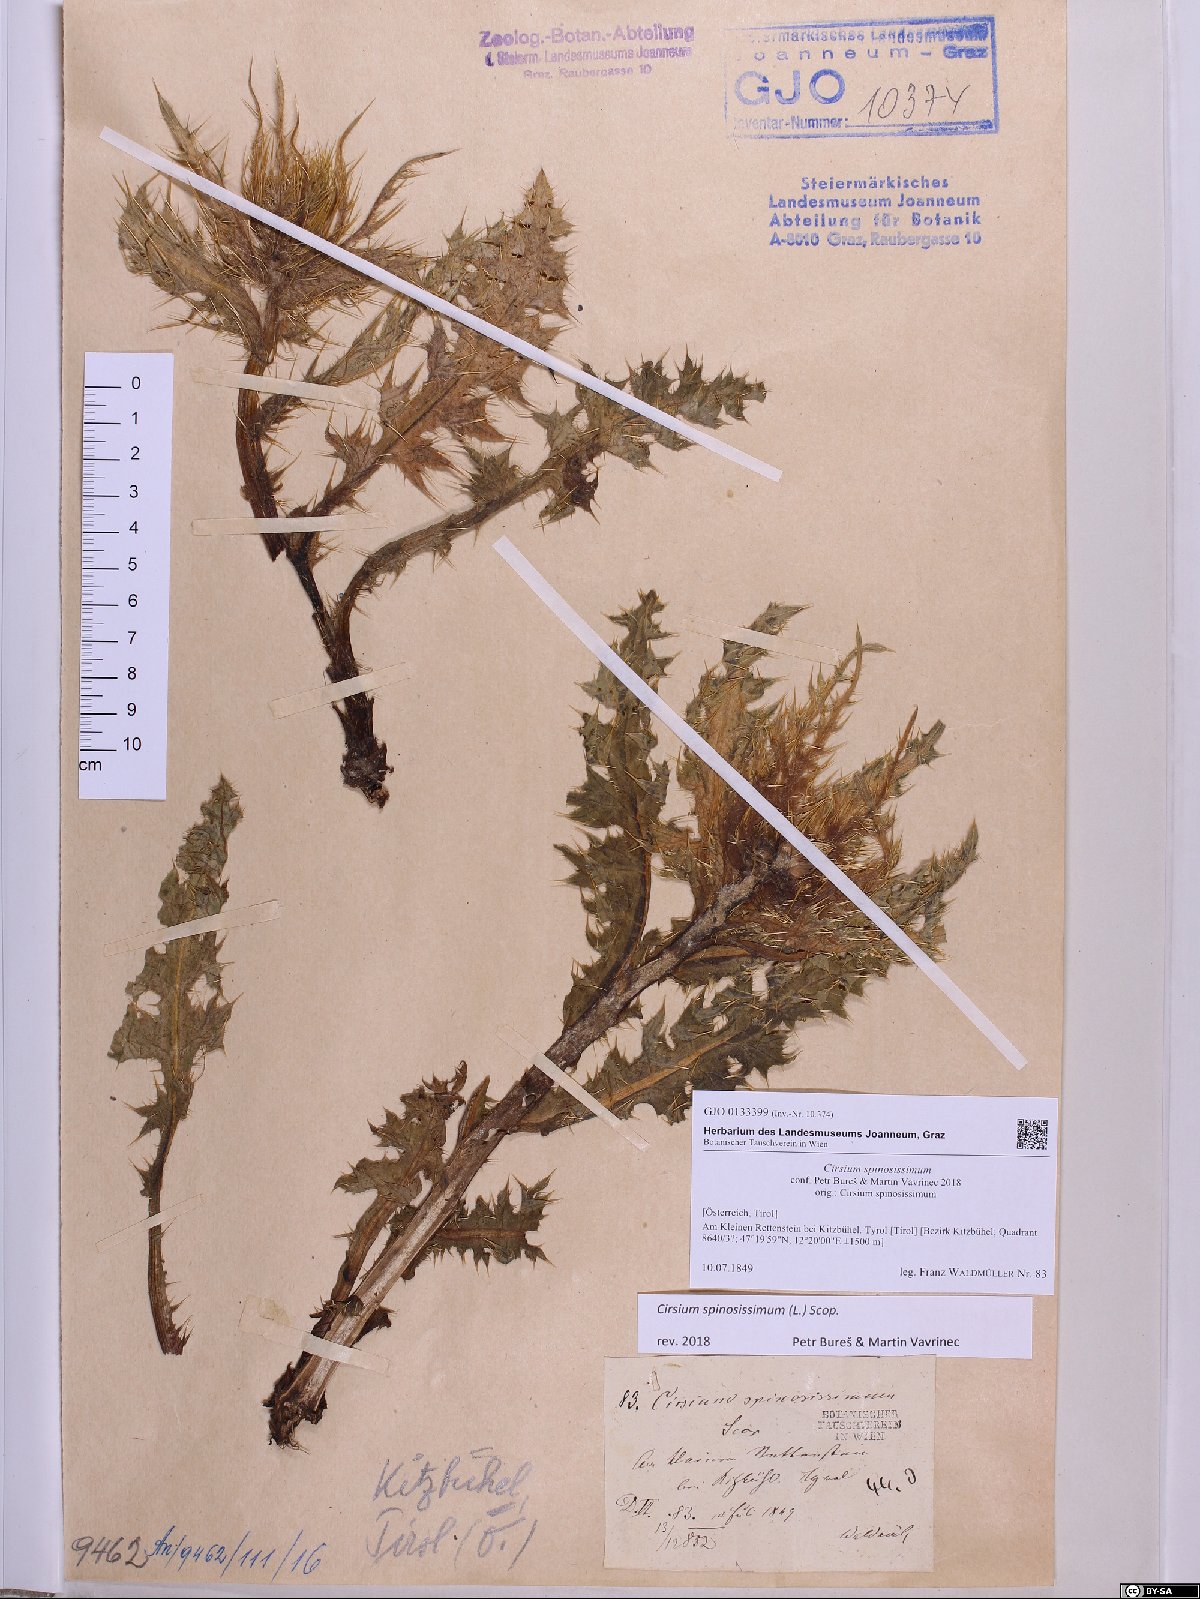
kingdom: Plantae
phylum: Tracheophyta
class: Magnoliopsida
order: Asterales
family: Asteraceae
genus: Cirsium
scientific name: Cirsium spinosissimum
